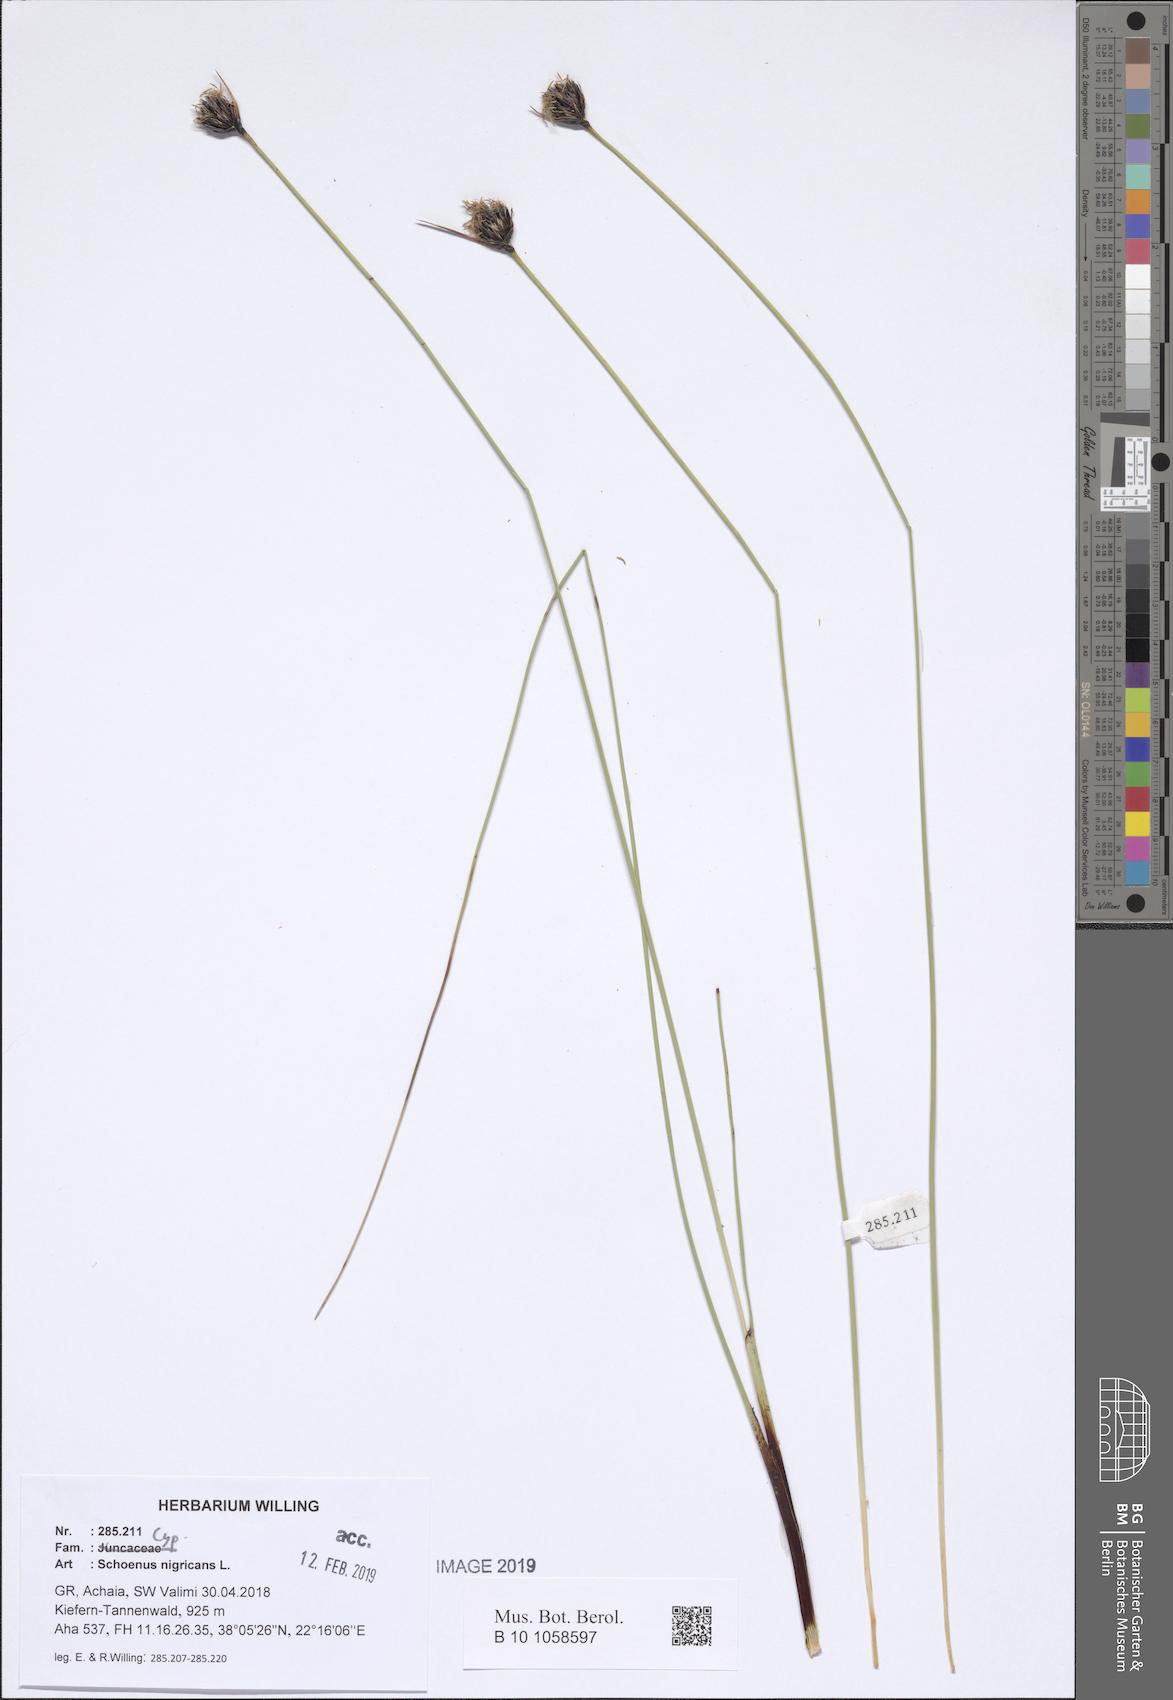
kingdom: Plantae
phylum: Tracheophyta
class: Liliopsida
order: Poales
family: Cyperaceae
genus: Schoenus
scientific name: Schoenus nigricans
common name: Black bog-rush
